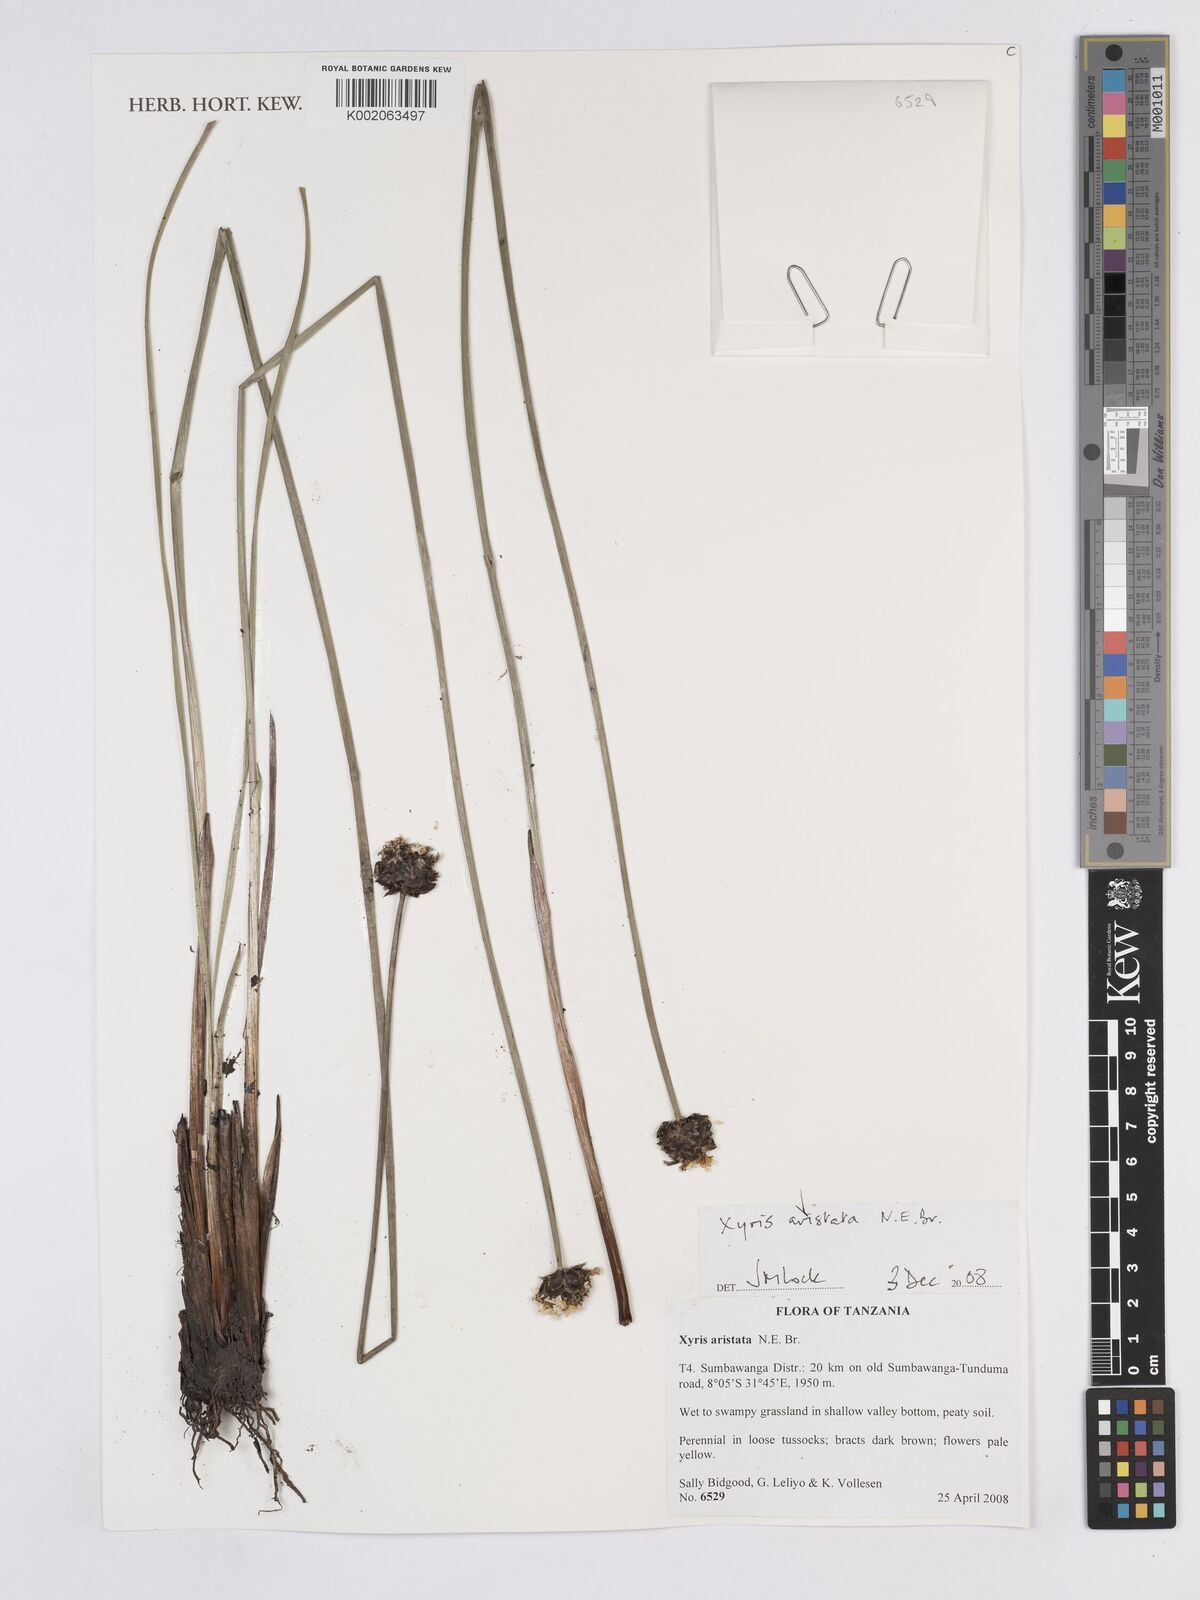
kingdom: Plantae
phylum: Tracheophyta
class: Liliopsida
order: Poales
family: Xyridaceae
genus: Xyris
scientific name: Xyris aristata
